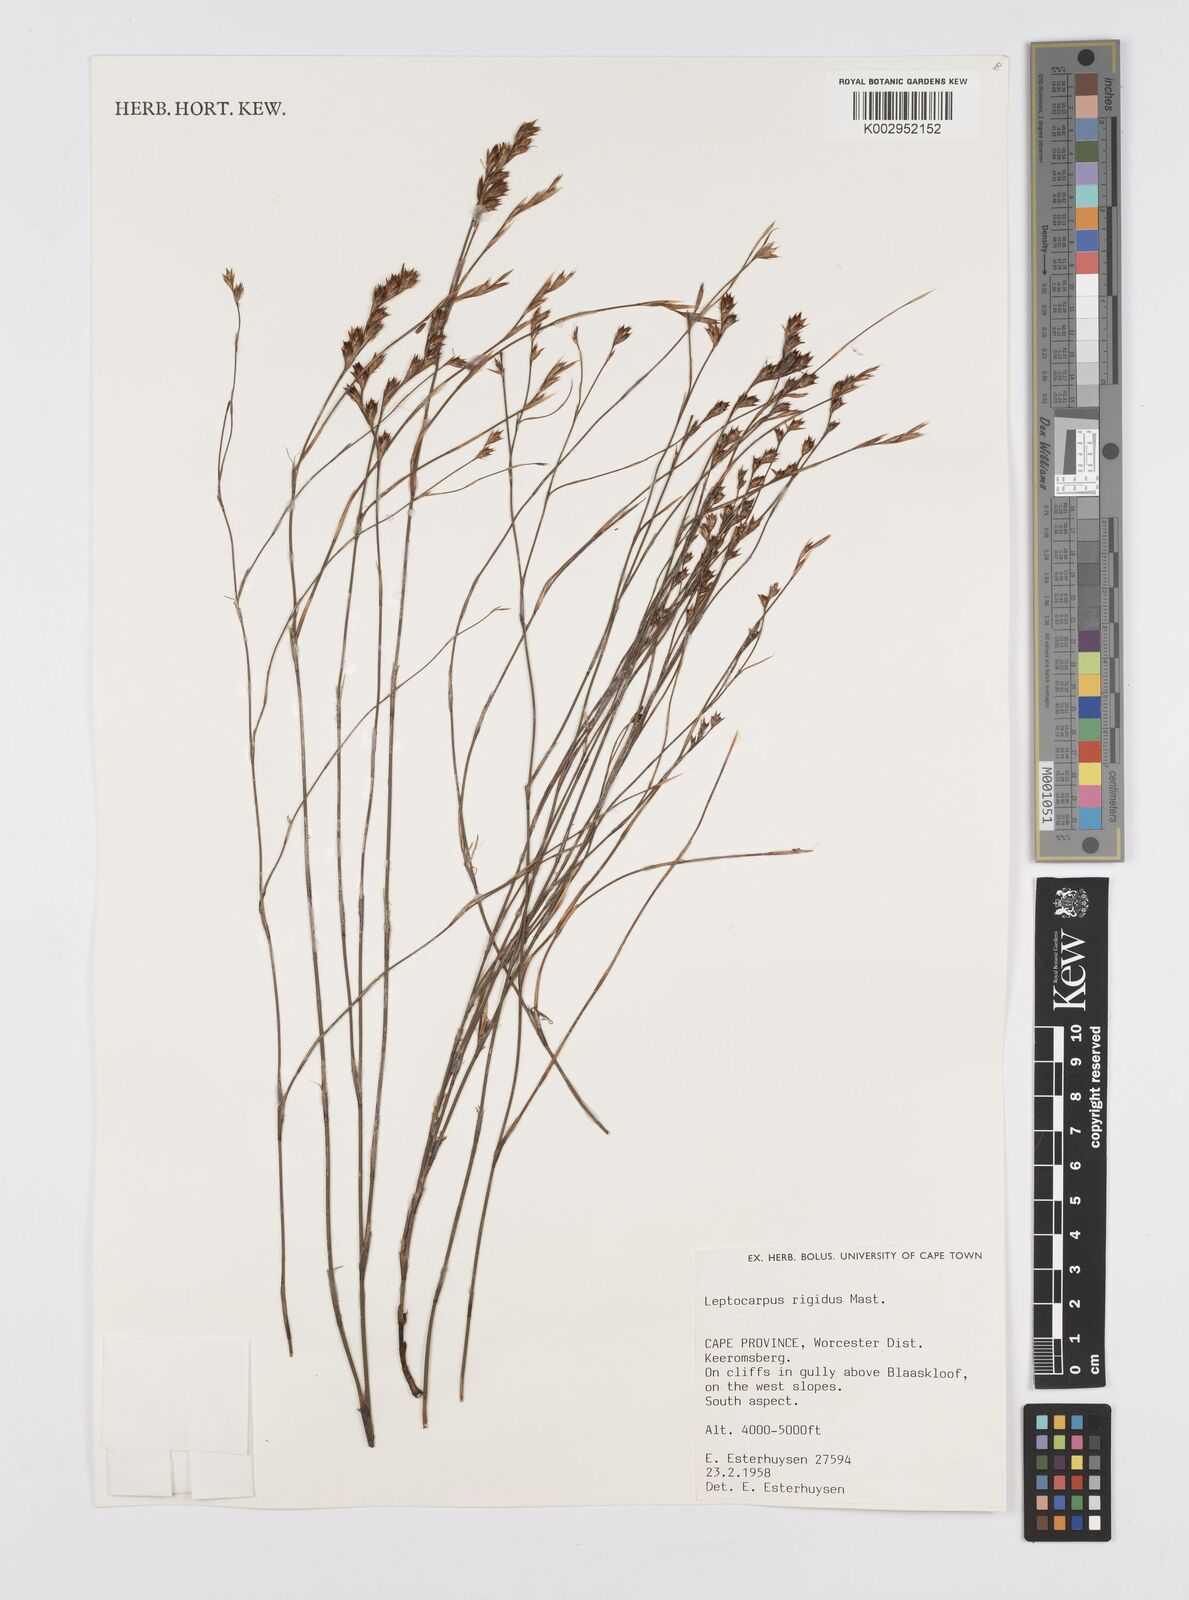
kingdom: Plantae
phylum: Tracheophyta
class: Liliopsida
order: Poales
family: Restionaceae
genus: Restio
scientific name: Restio rigidus
